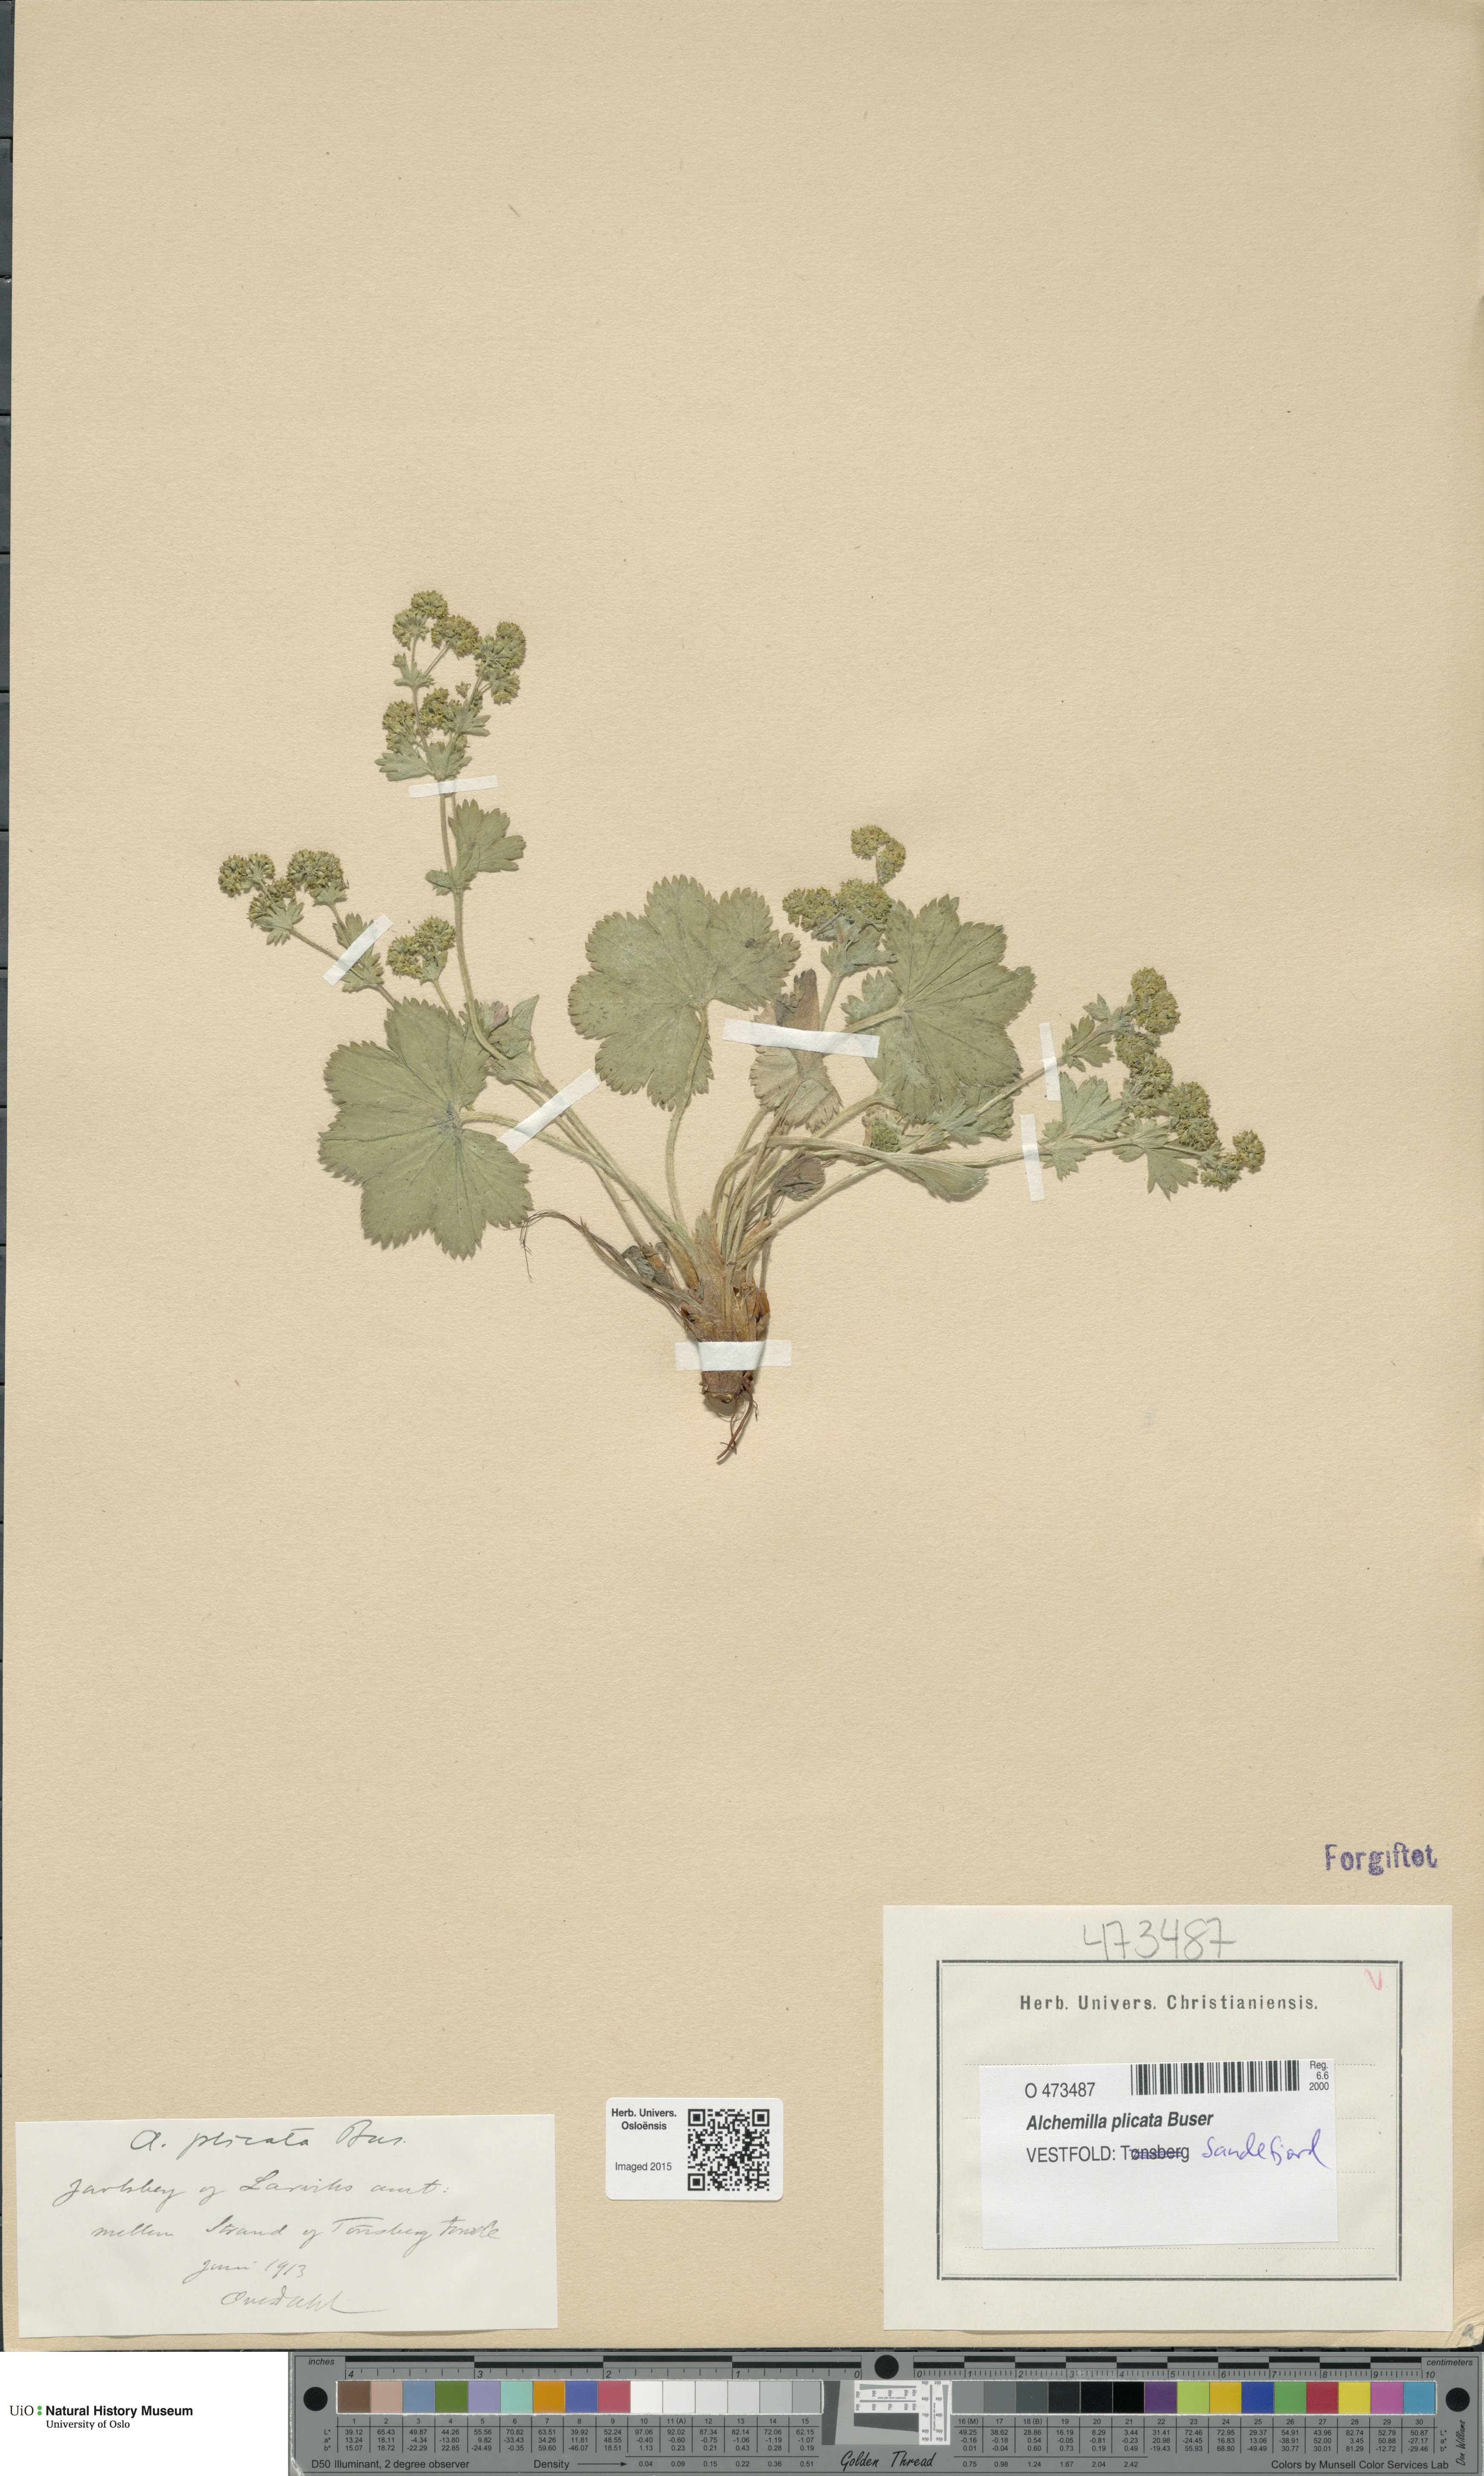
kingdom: Plantae
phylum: Tracheophyta
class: Magnoliopsida
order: Rosales
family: Rosaceae
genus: Alchemilla
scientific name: Alchemilla plicata
